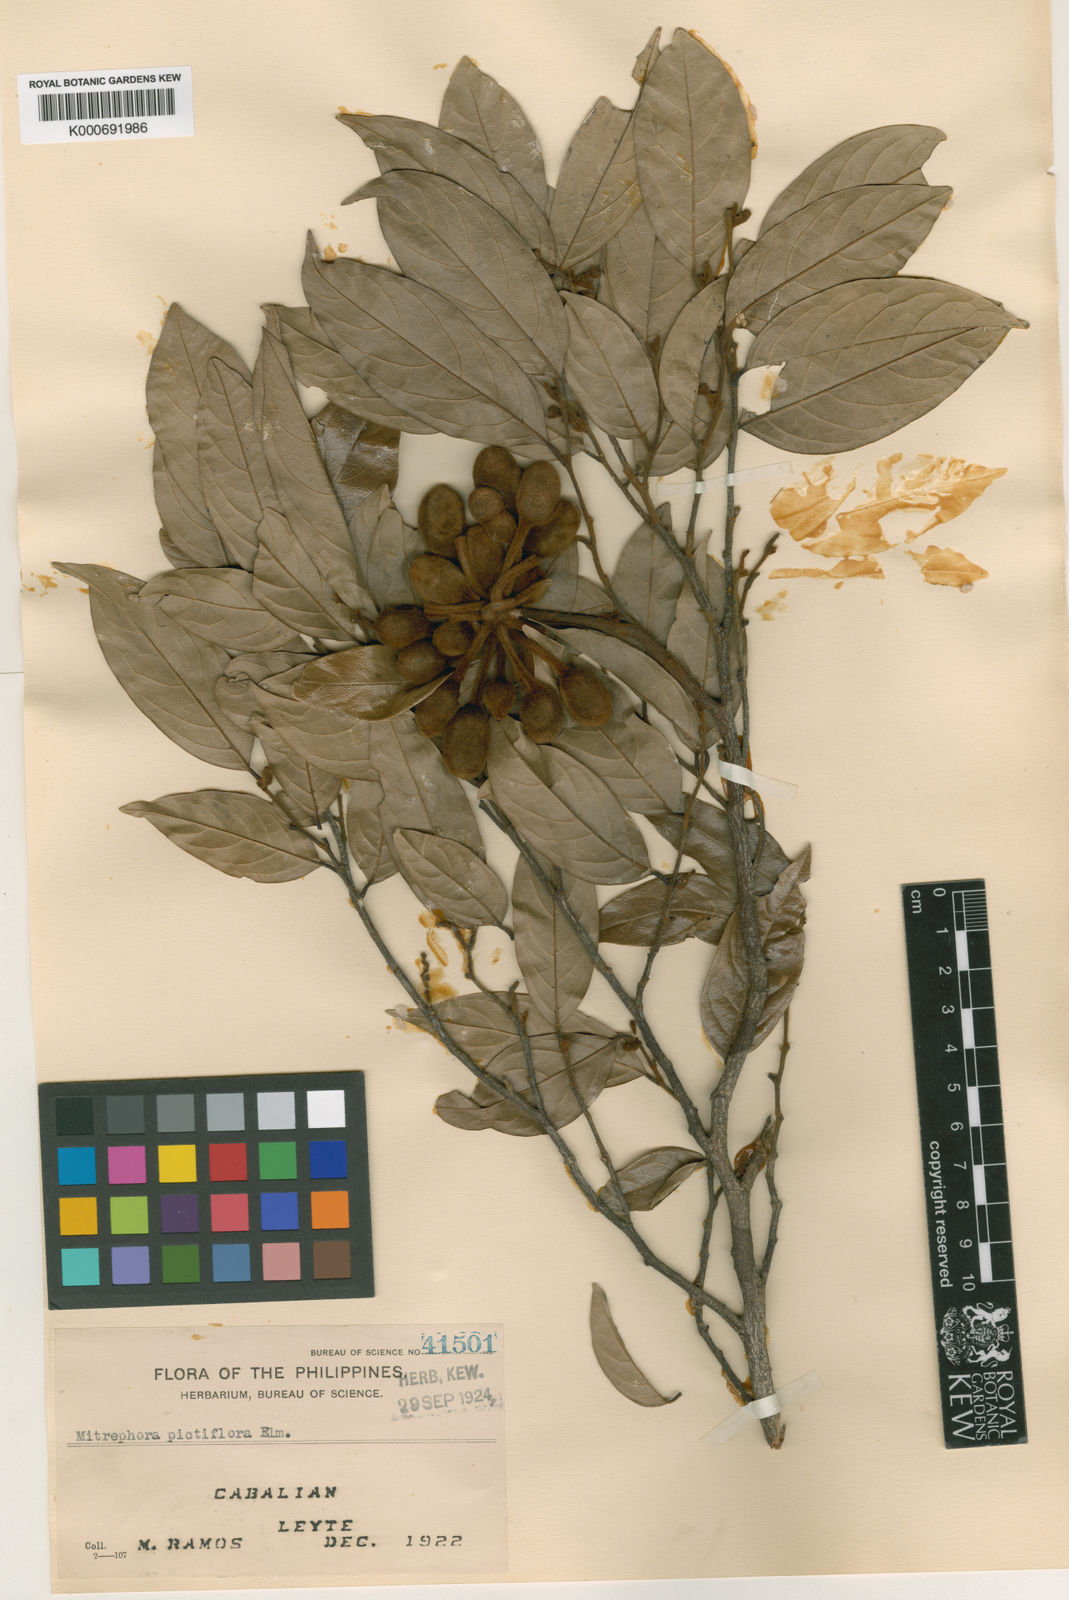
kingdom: Plantae
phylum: Tracheophyta
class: Magnoliopsida
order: Magnoliales
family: Annonaceae
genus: Mitrephora
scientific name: Mitrephora pictiflora
